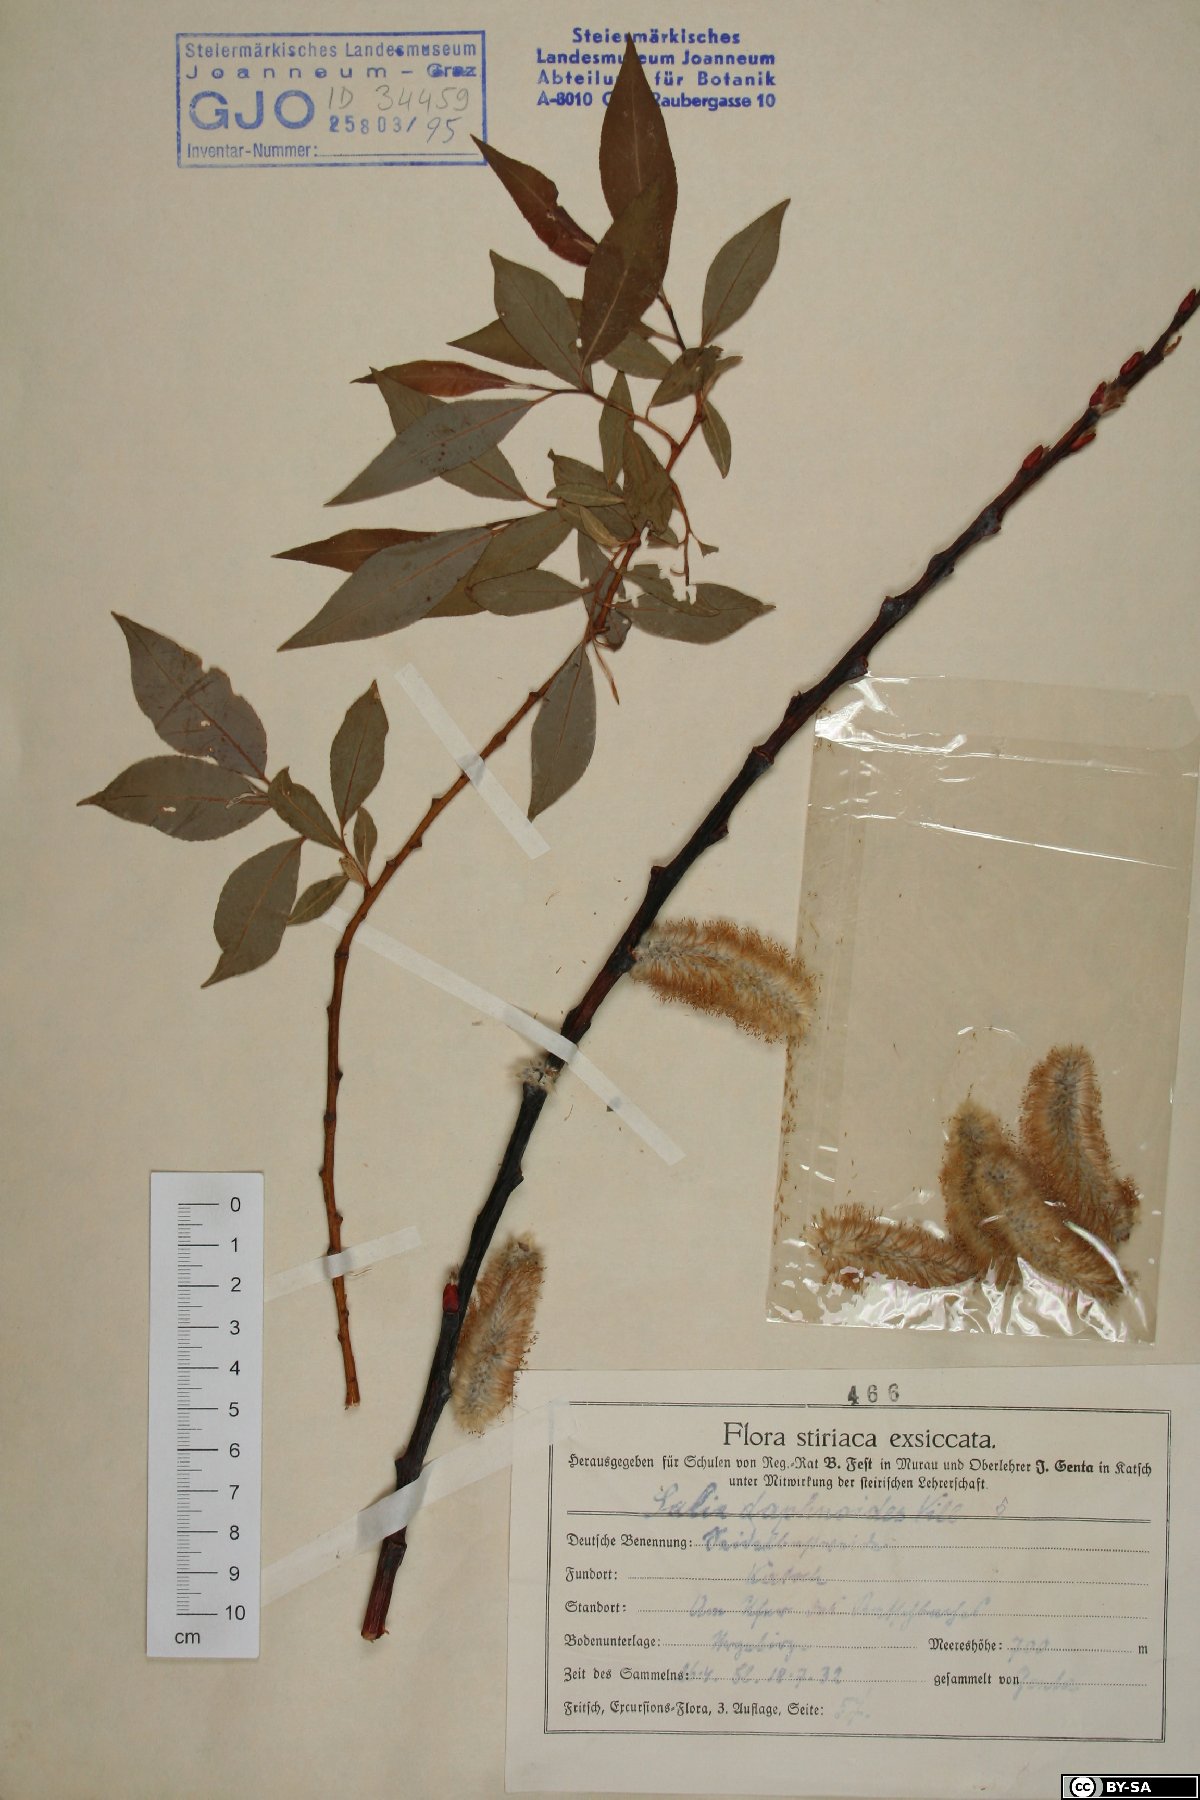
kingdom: Plantae
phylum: Tracheophyta
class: Magnoliopsida
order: Malpighiales
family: Salicaceae
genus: Salix
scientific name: Salix daphnoides
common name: European violet-willow
